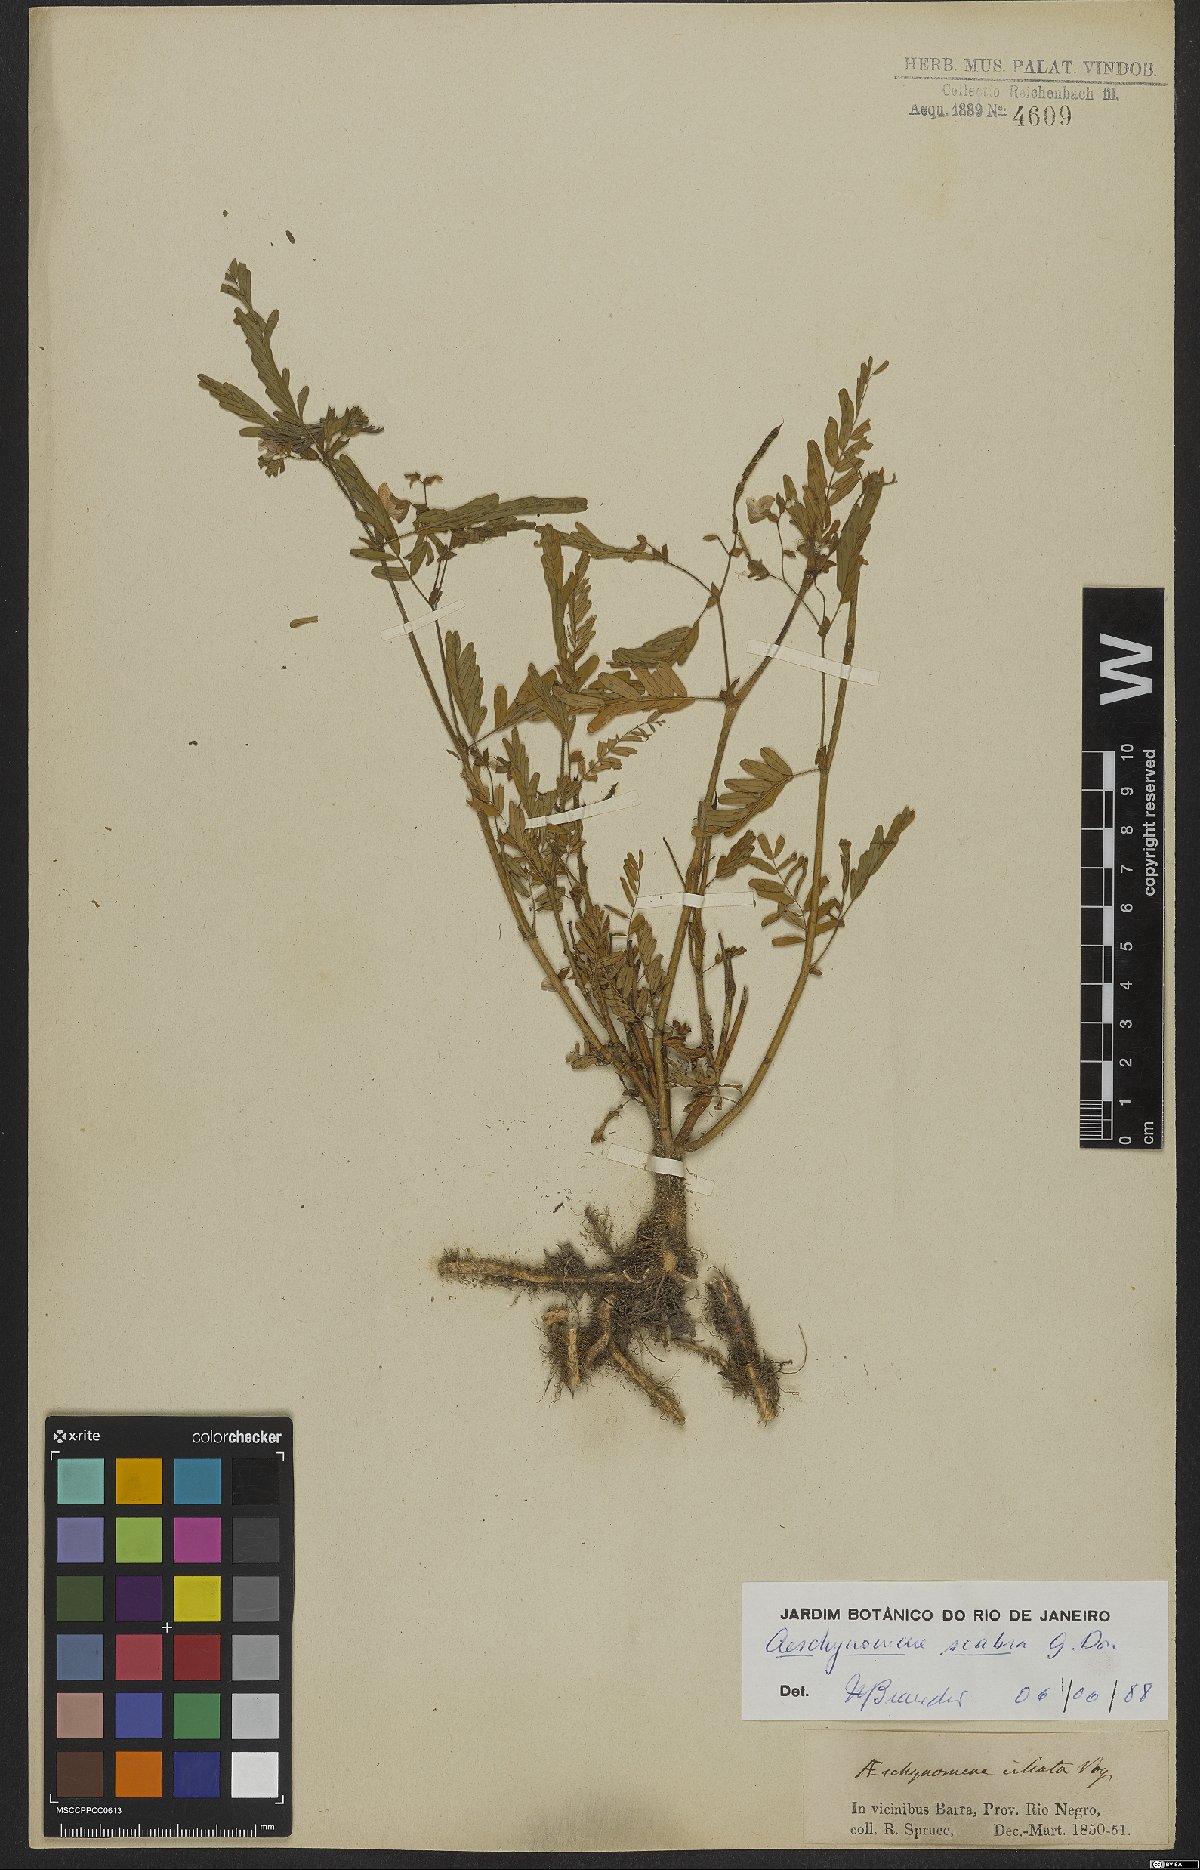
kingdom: Plantae
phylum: Tracheophyta
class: Magnoliopsida
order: Fabales
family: Fabaceae
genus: Aeschynomene
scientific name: Aeschynomene scabra
